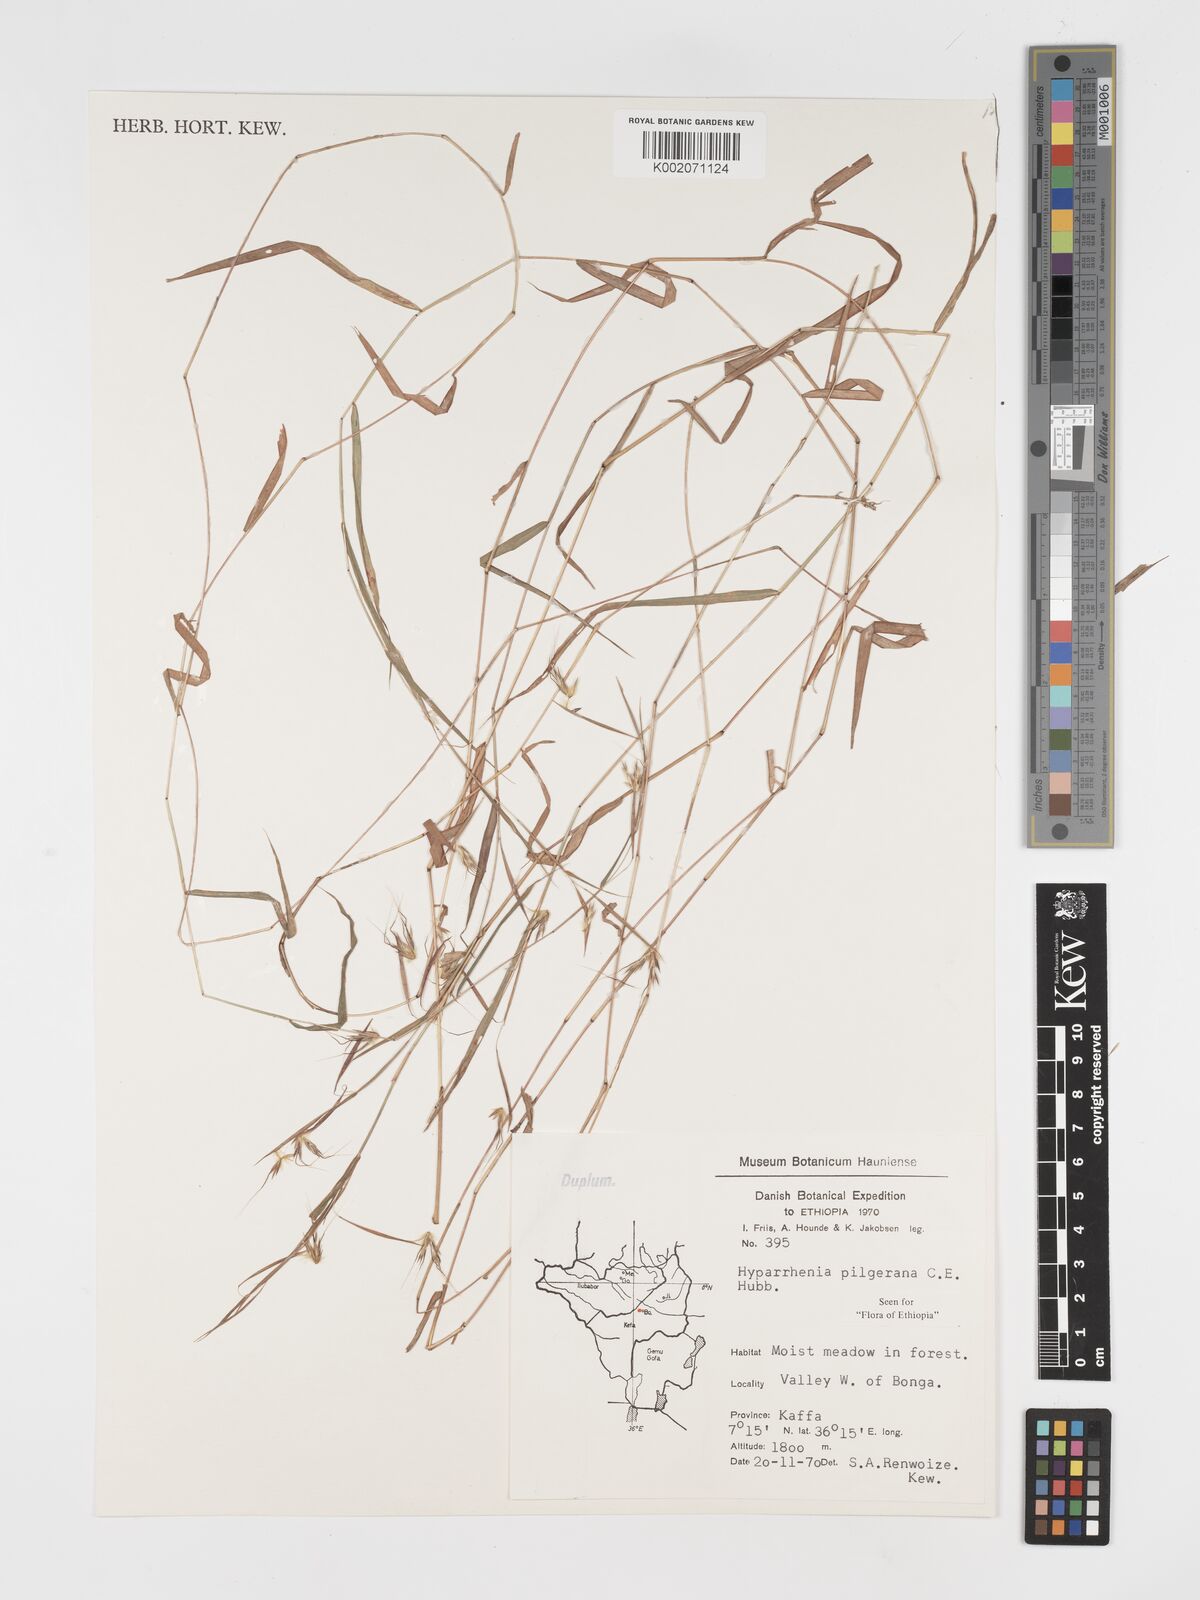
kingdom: Plantae
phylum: Tracheophyta
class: Liliopsida
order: Poales
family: Poaceae
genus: Hyparrhenia
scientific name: Hyparrhenia pilgeriana
